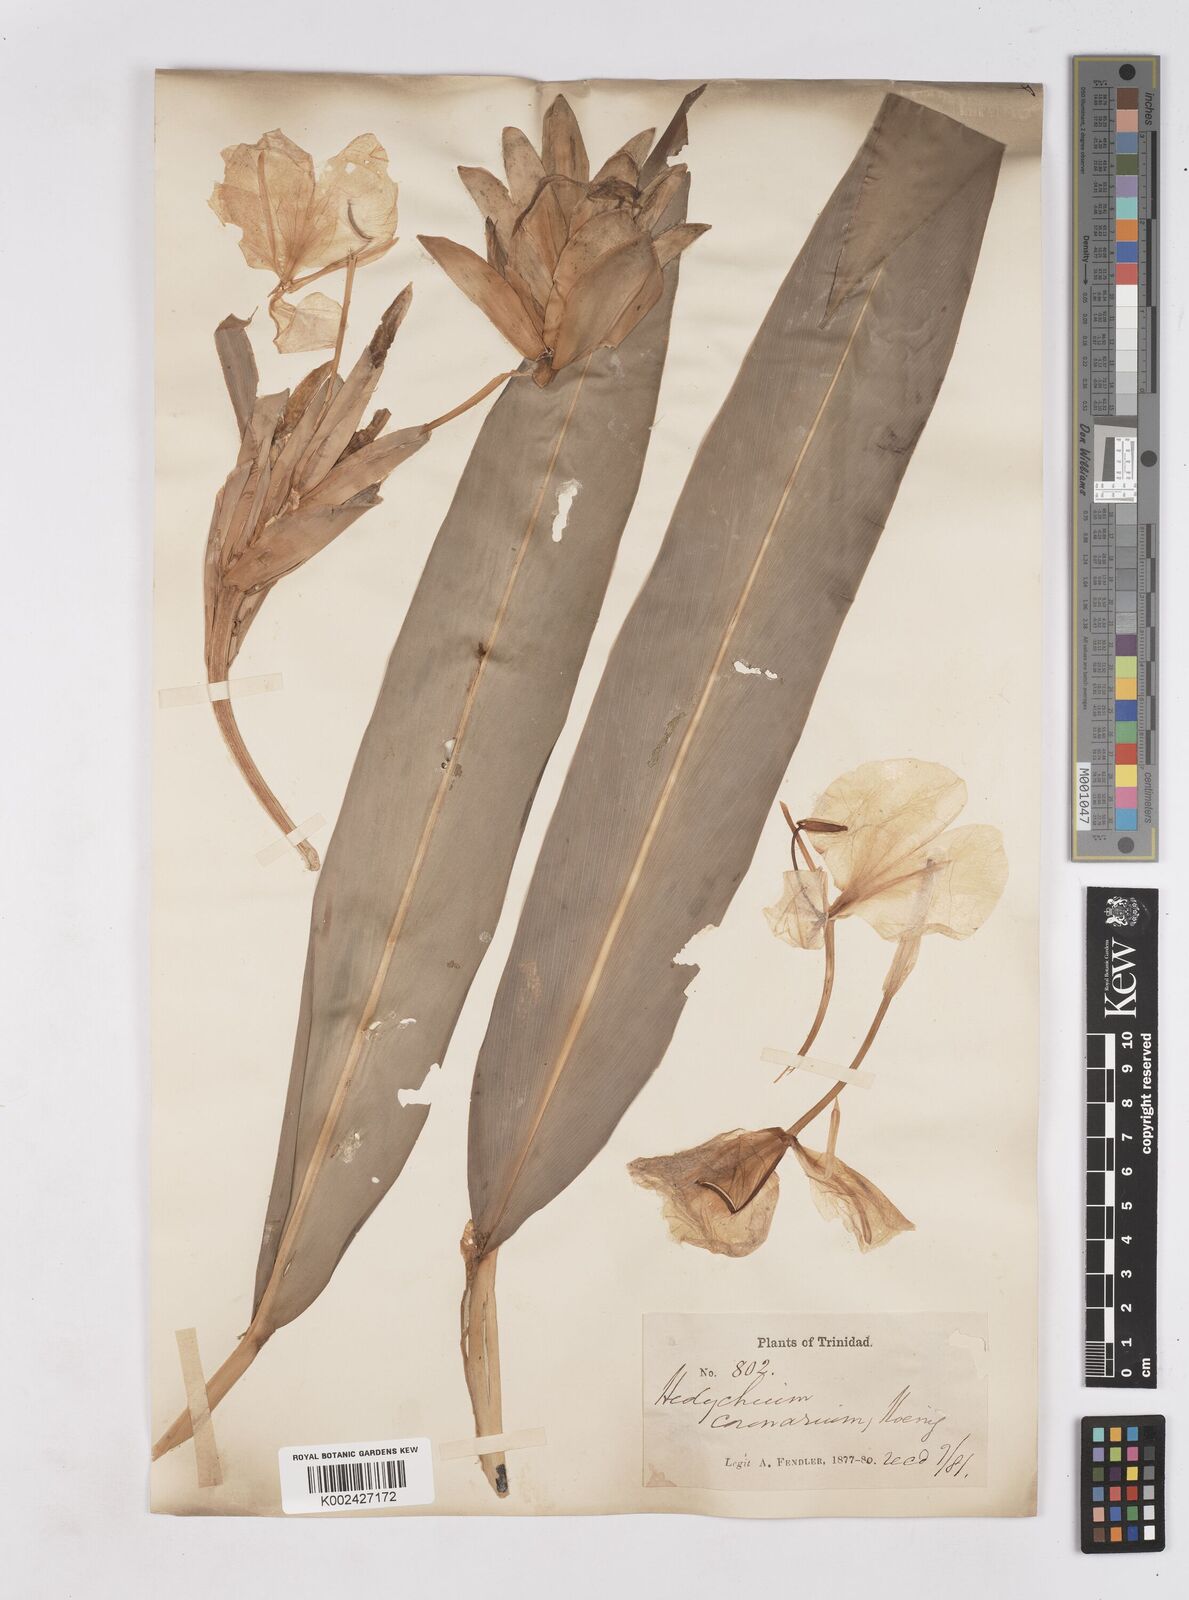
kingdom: Plantae
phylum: Tracheophyta
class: Liliopsida
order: Zingiberales
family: Zingiberaceae
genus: Hedychium
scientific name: Hedychium coronarium
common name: White garland-lily
